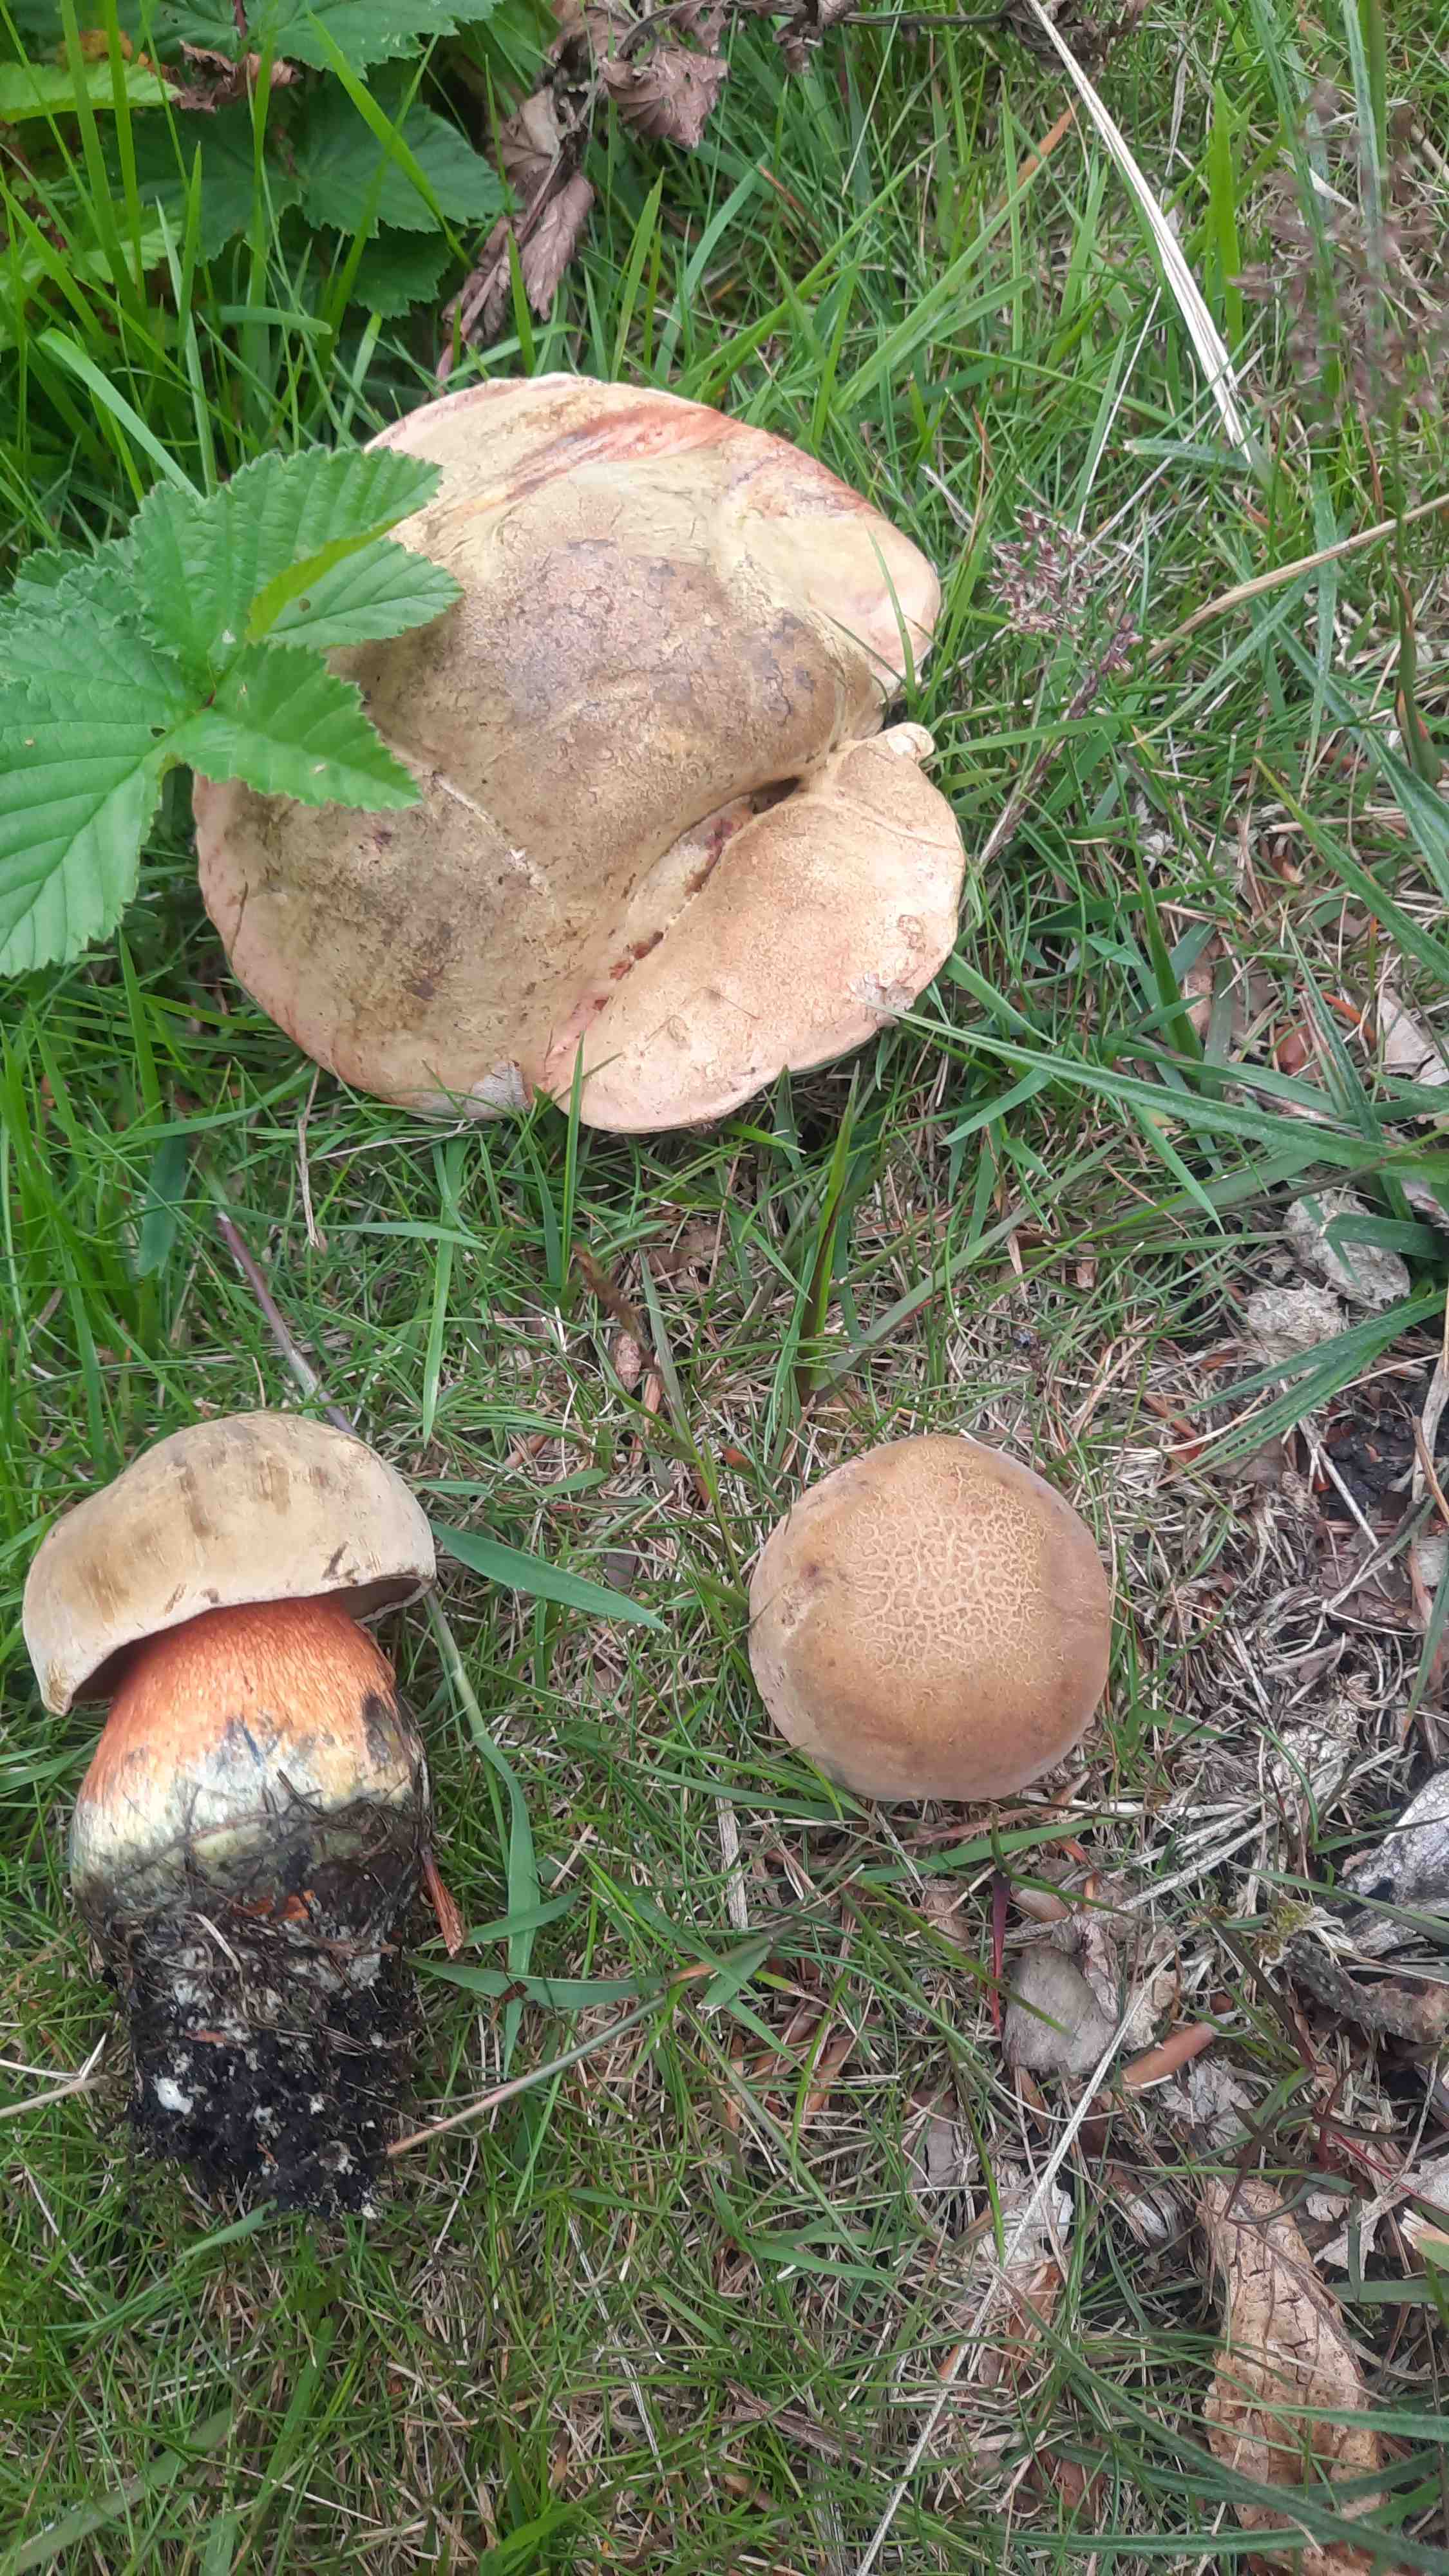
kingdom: Fungi
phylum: Basidiomycota
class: Agaricomycetes
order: Boletales
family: Boletaceae
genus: Neoboletus
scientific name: Neoboletus erythropus
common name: punktstokket indigorørhat
